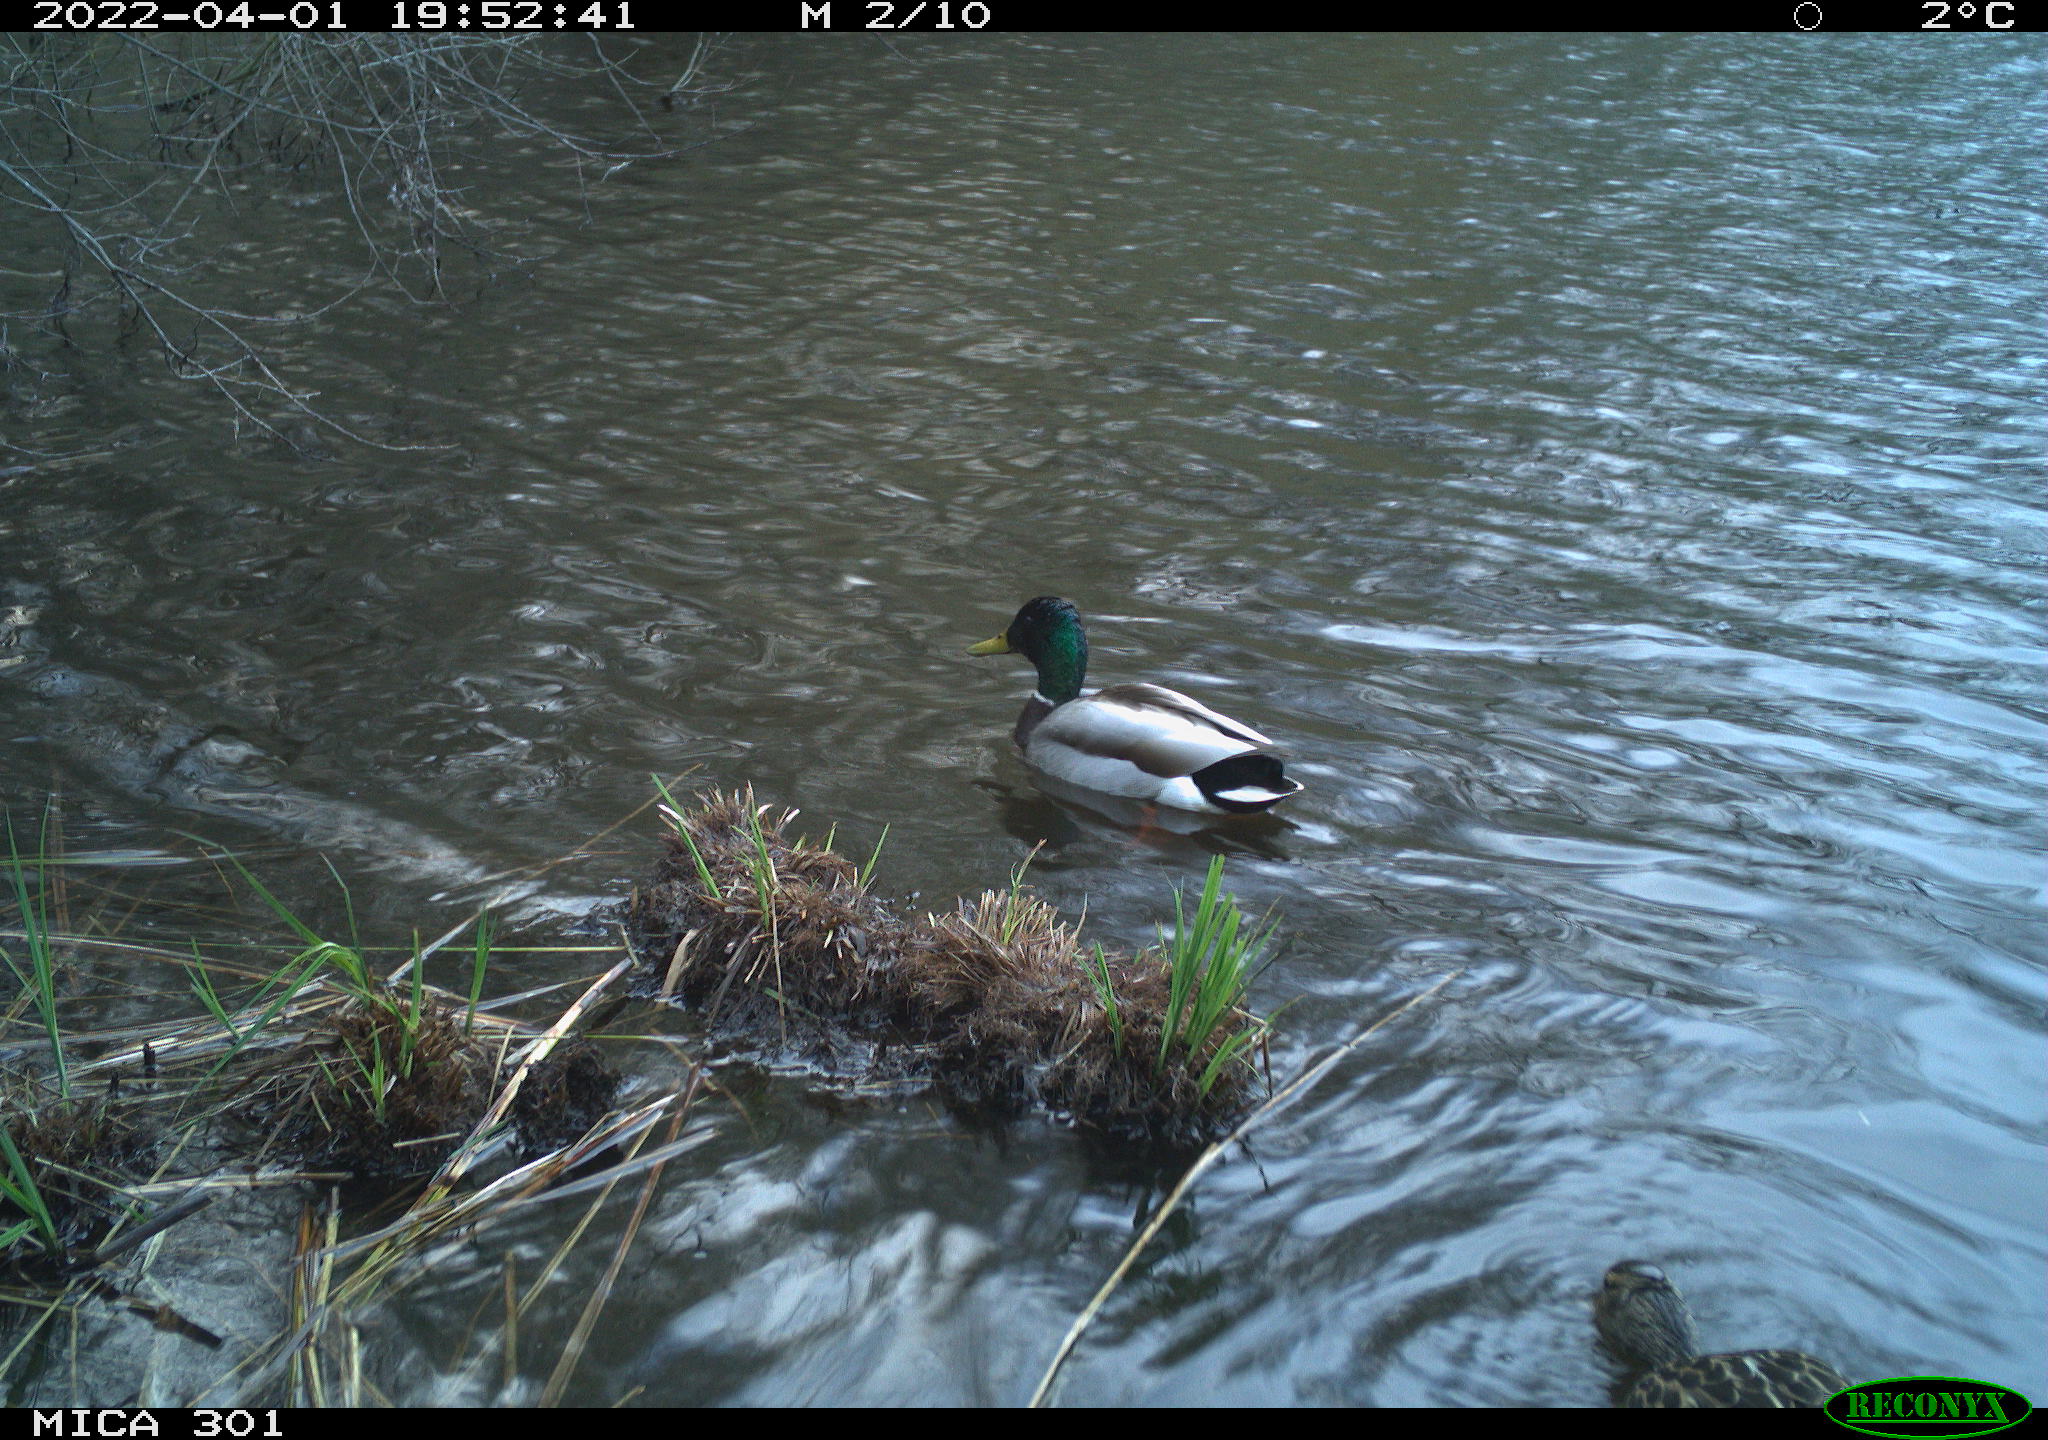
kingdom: Animalia
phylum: Chordata
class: Aves
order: Anseriformes
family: Anatidae
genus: Mareca
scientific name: Mareca strepera
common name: Gadwall
